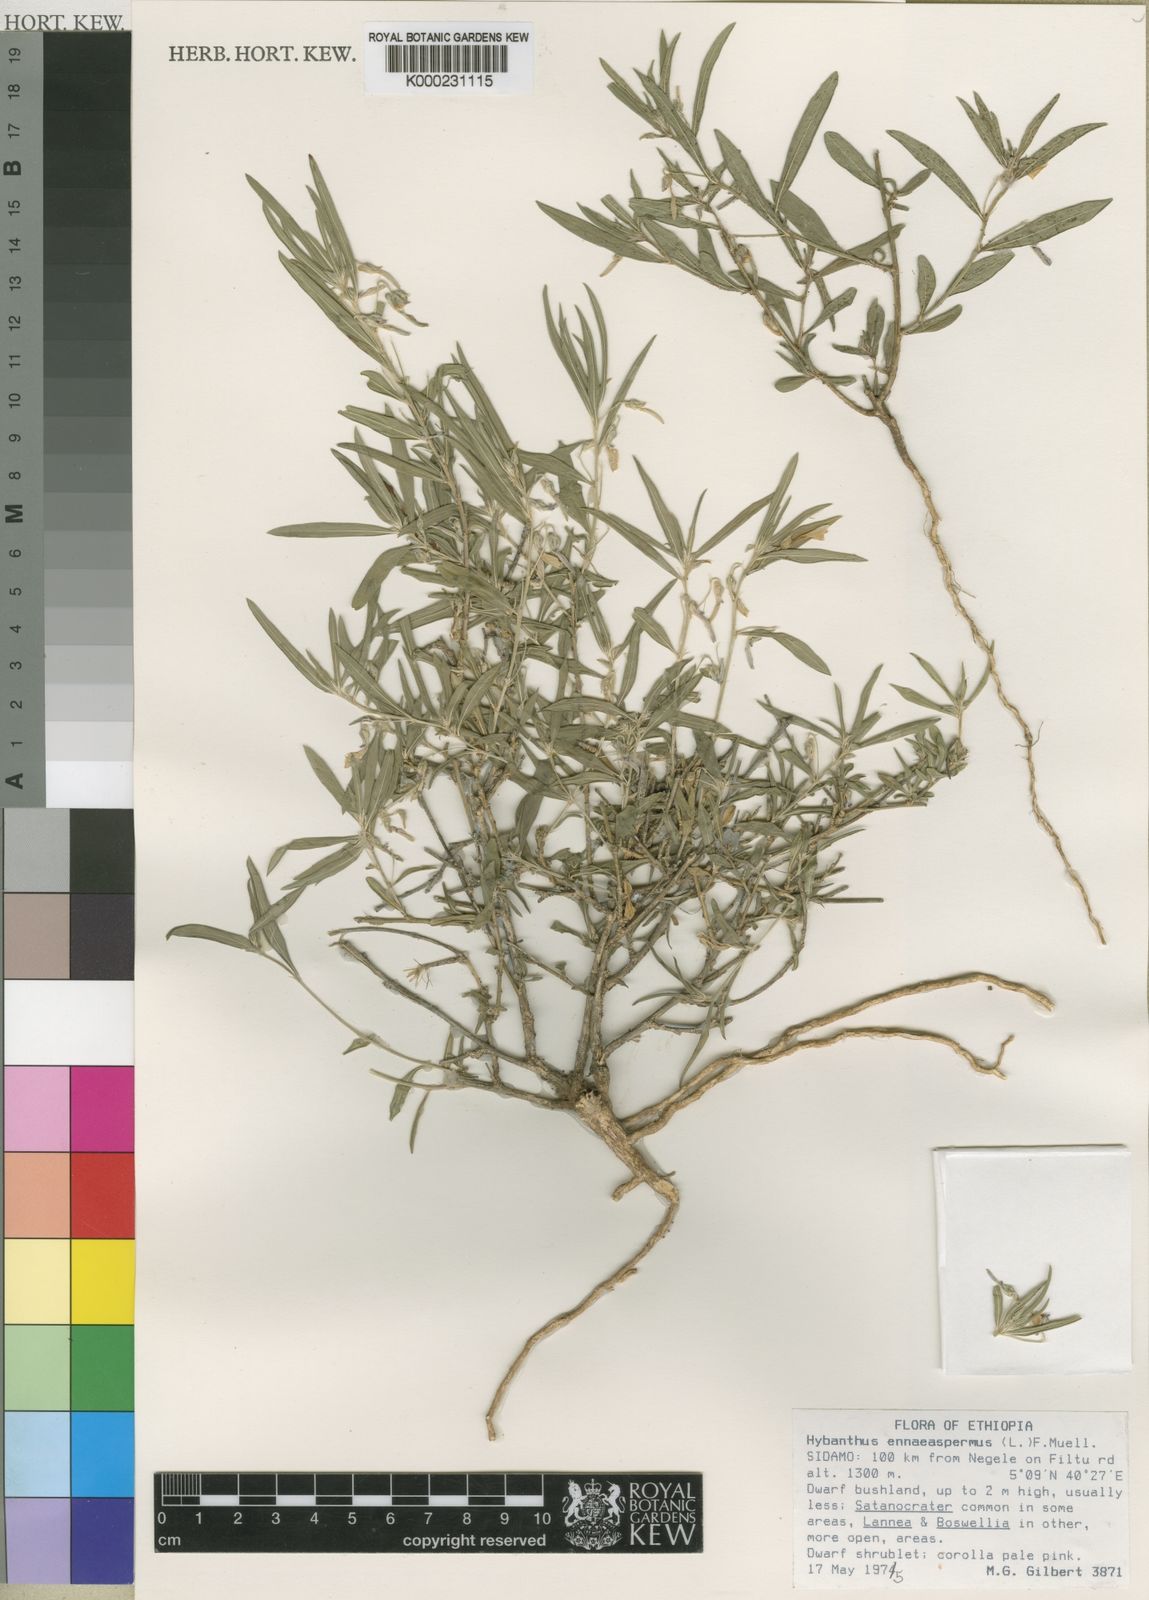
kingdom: Plantae
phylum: Tracheophyta
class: Magnoliopsida
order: Malpighiales
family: Violaceae
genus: Pigea
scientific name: Pigea puberula
